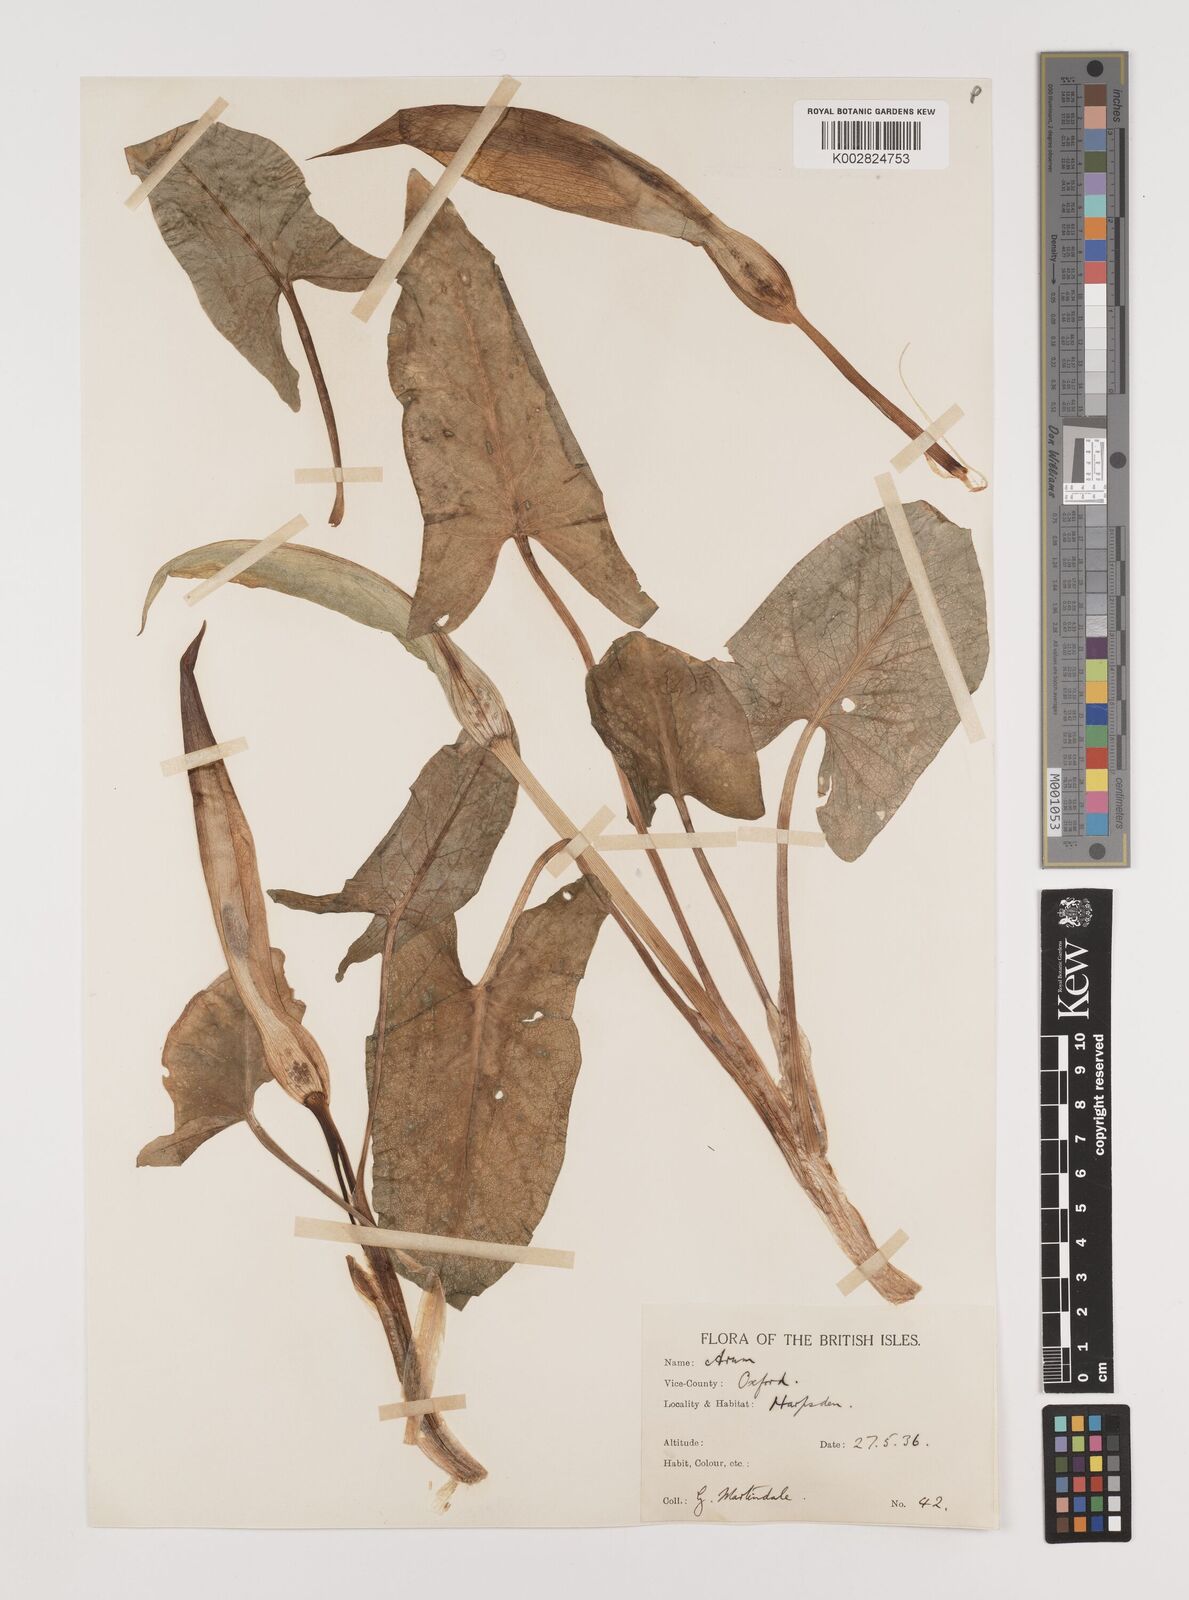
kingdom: Plantae
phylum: Tracheophyta
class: Liliopsida
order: Alismatales
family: Araceae
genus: Arum
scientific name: Arum maculatum
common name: Lords-and-ladies
